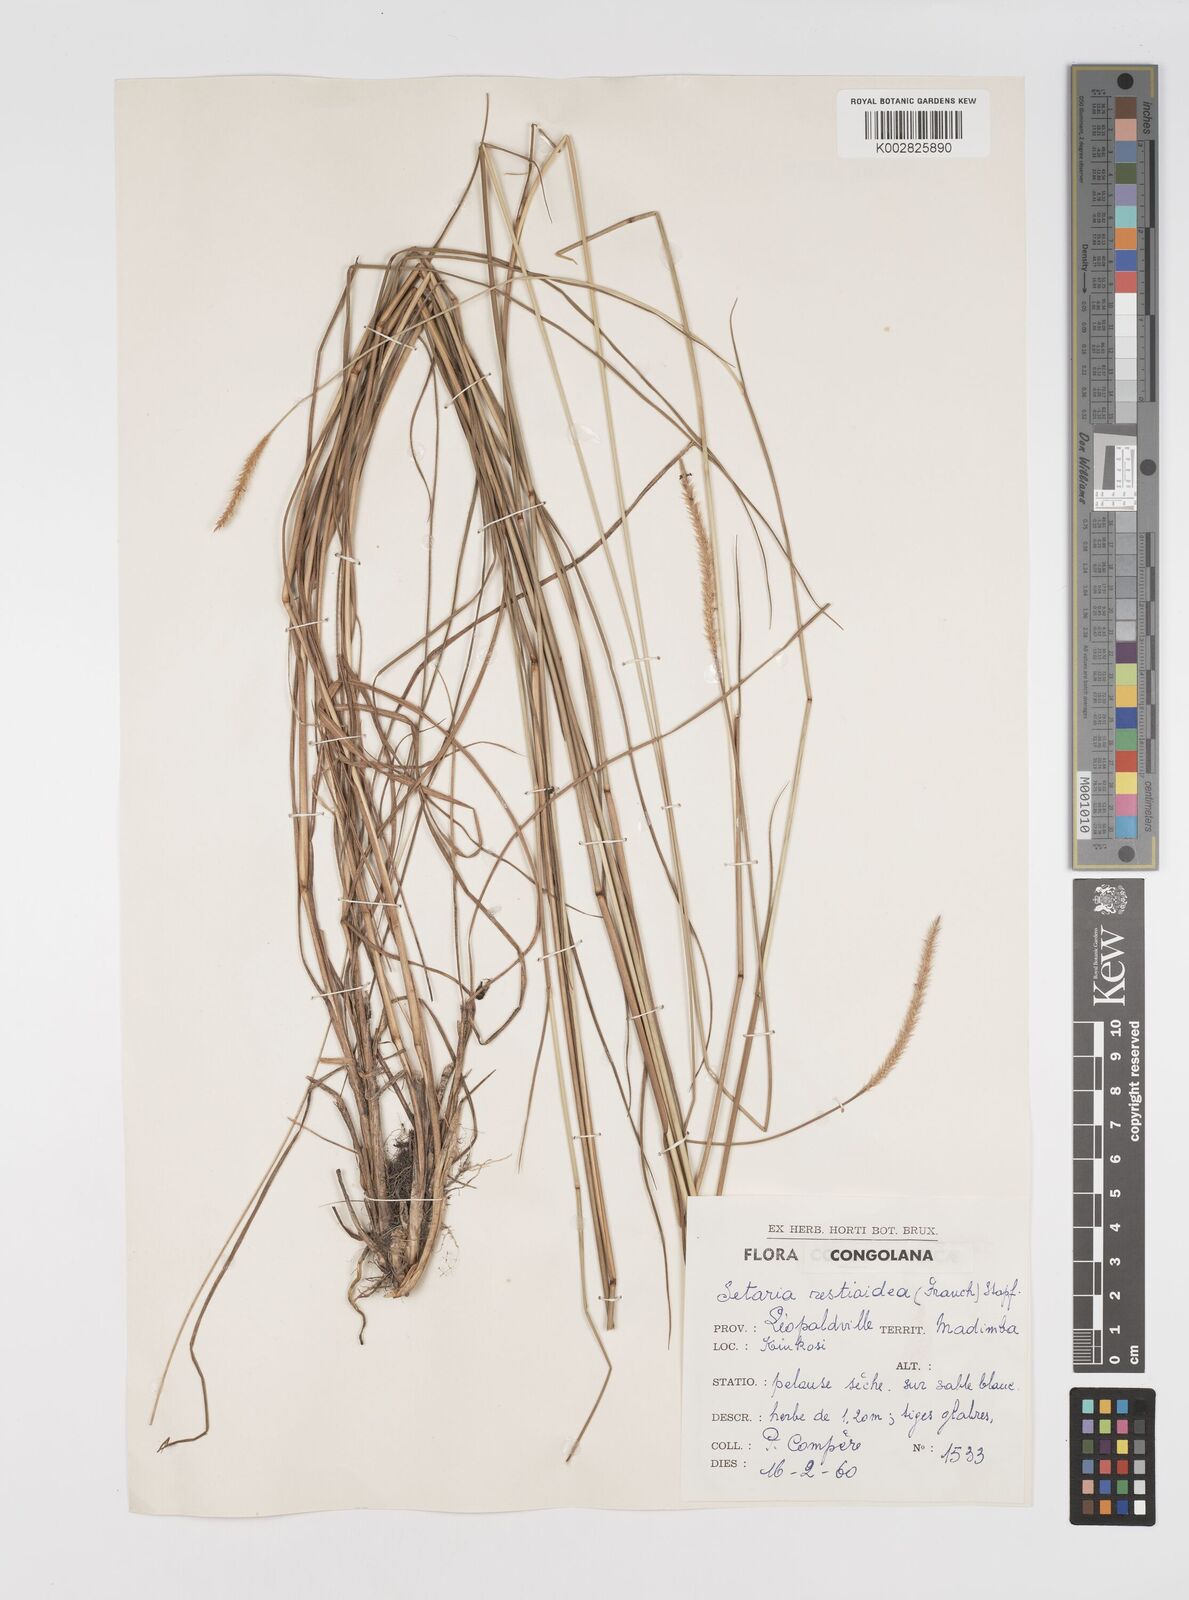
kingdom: Plantae
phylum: Tracheophyta
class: Liliopsida
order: Poales
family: Poaceae
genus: Setaria
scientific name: Setaria restioidea
